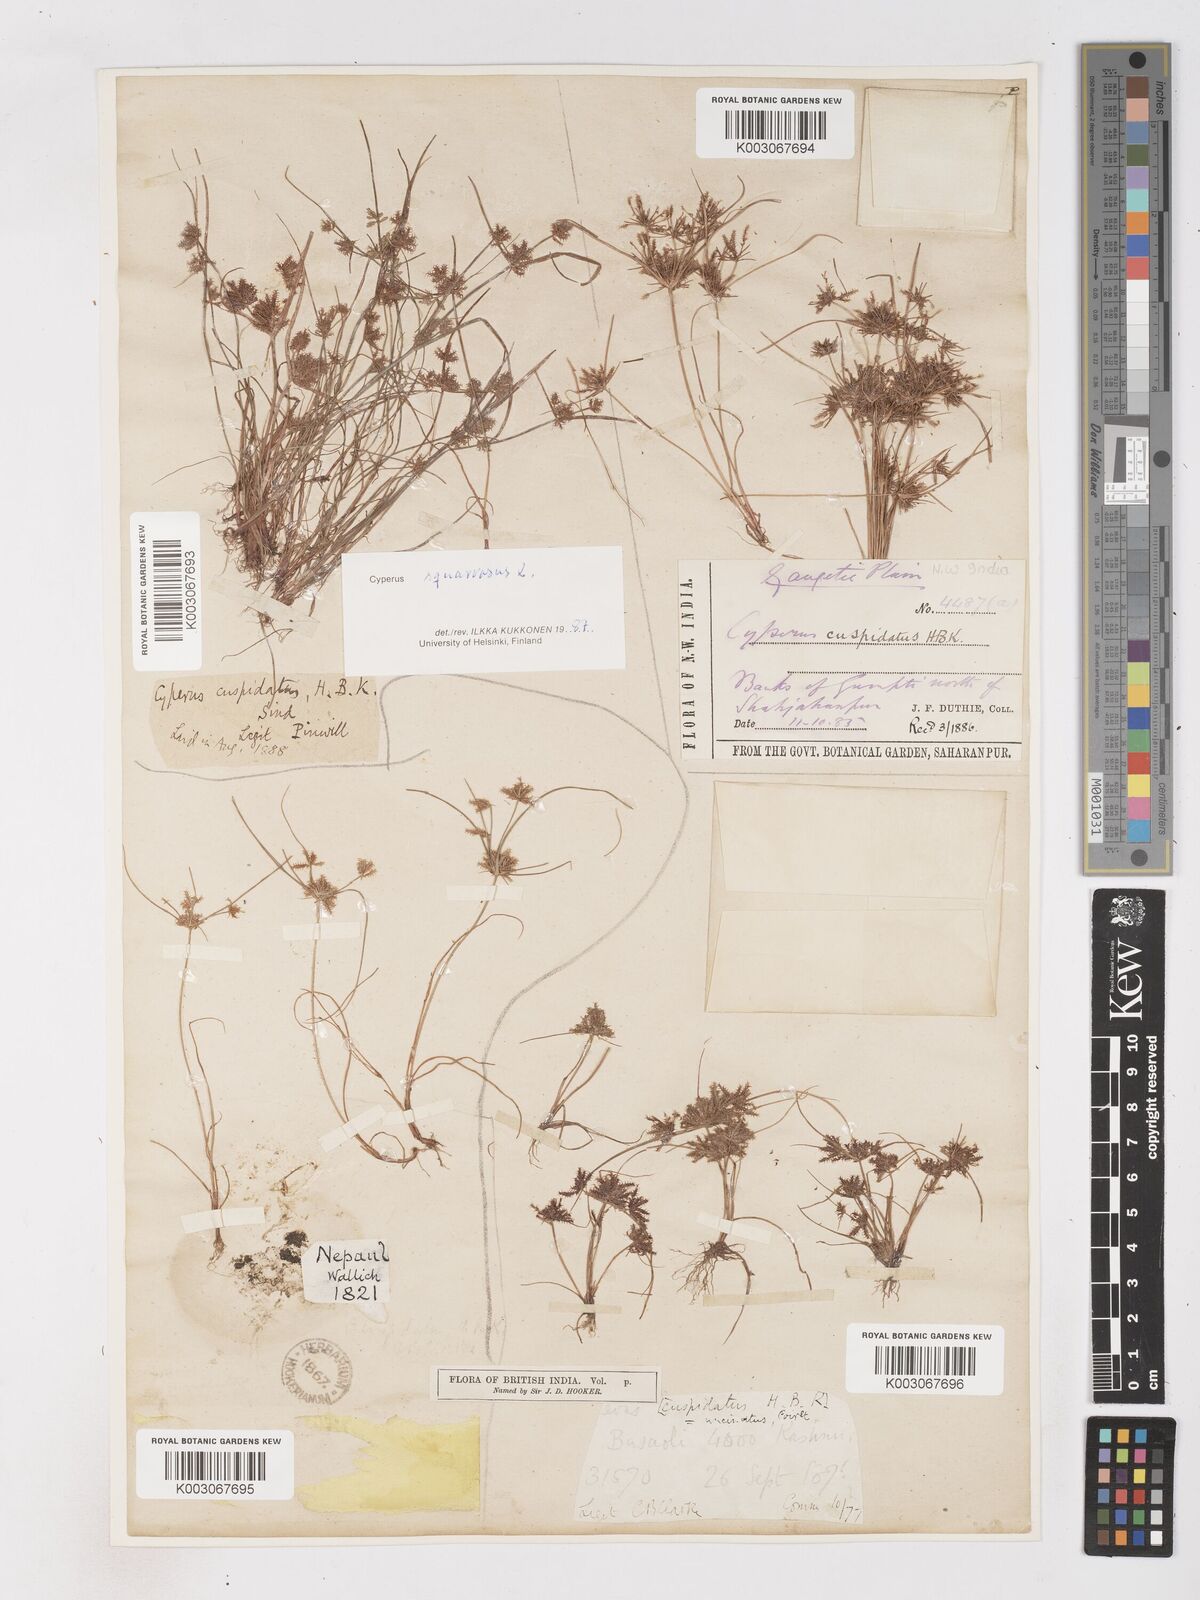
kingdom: Plantae
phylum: Tracheophyta
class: Liliopsida
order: Poales
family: Cyperaceae
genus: Cyperus
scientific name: Cyperus squarrosus
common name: Awned cyperus
